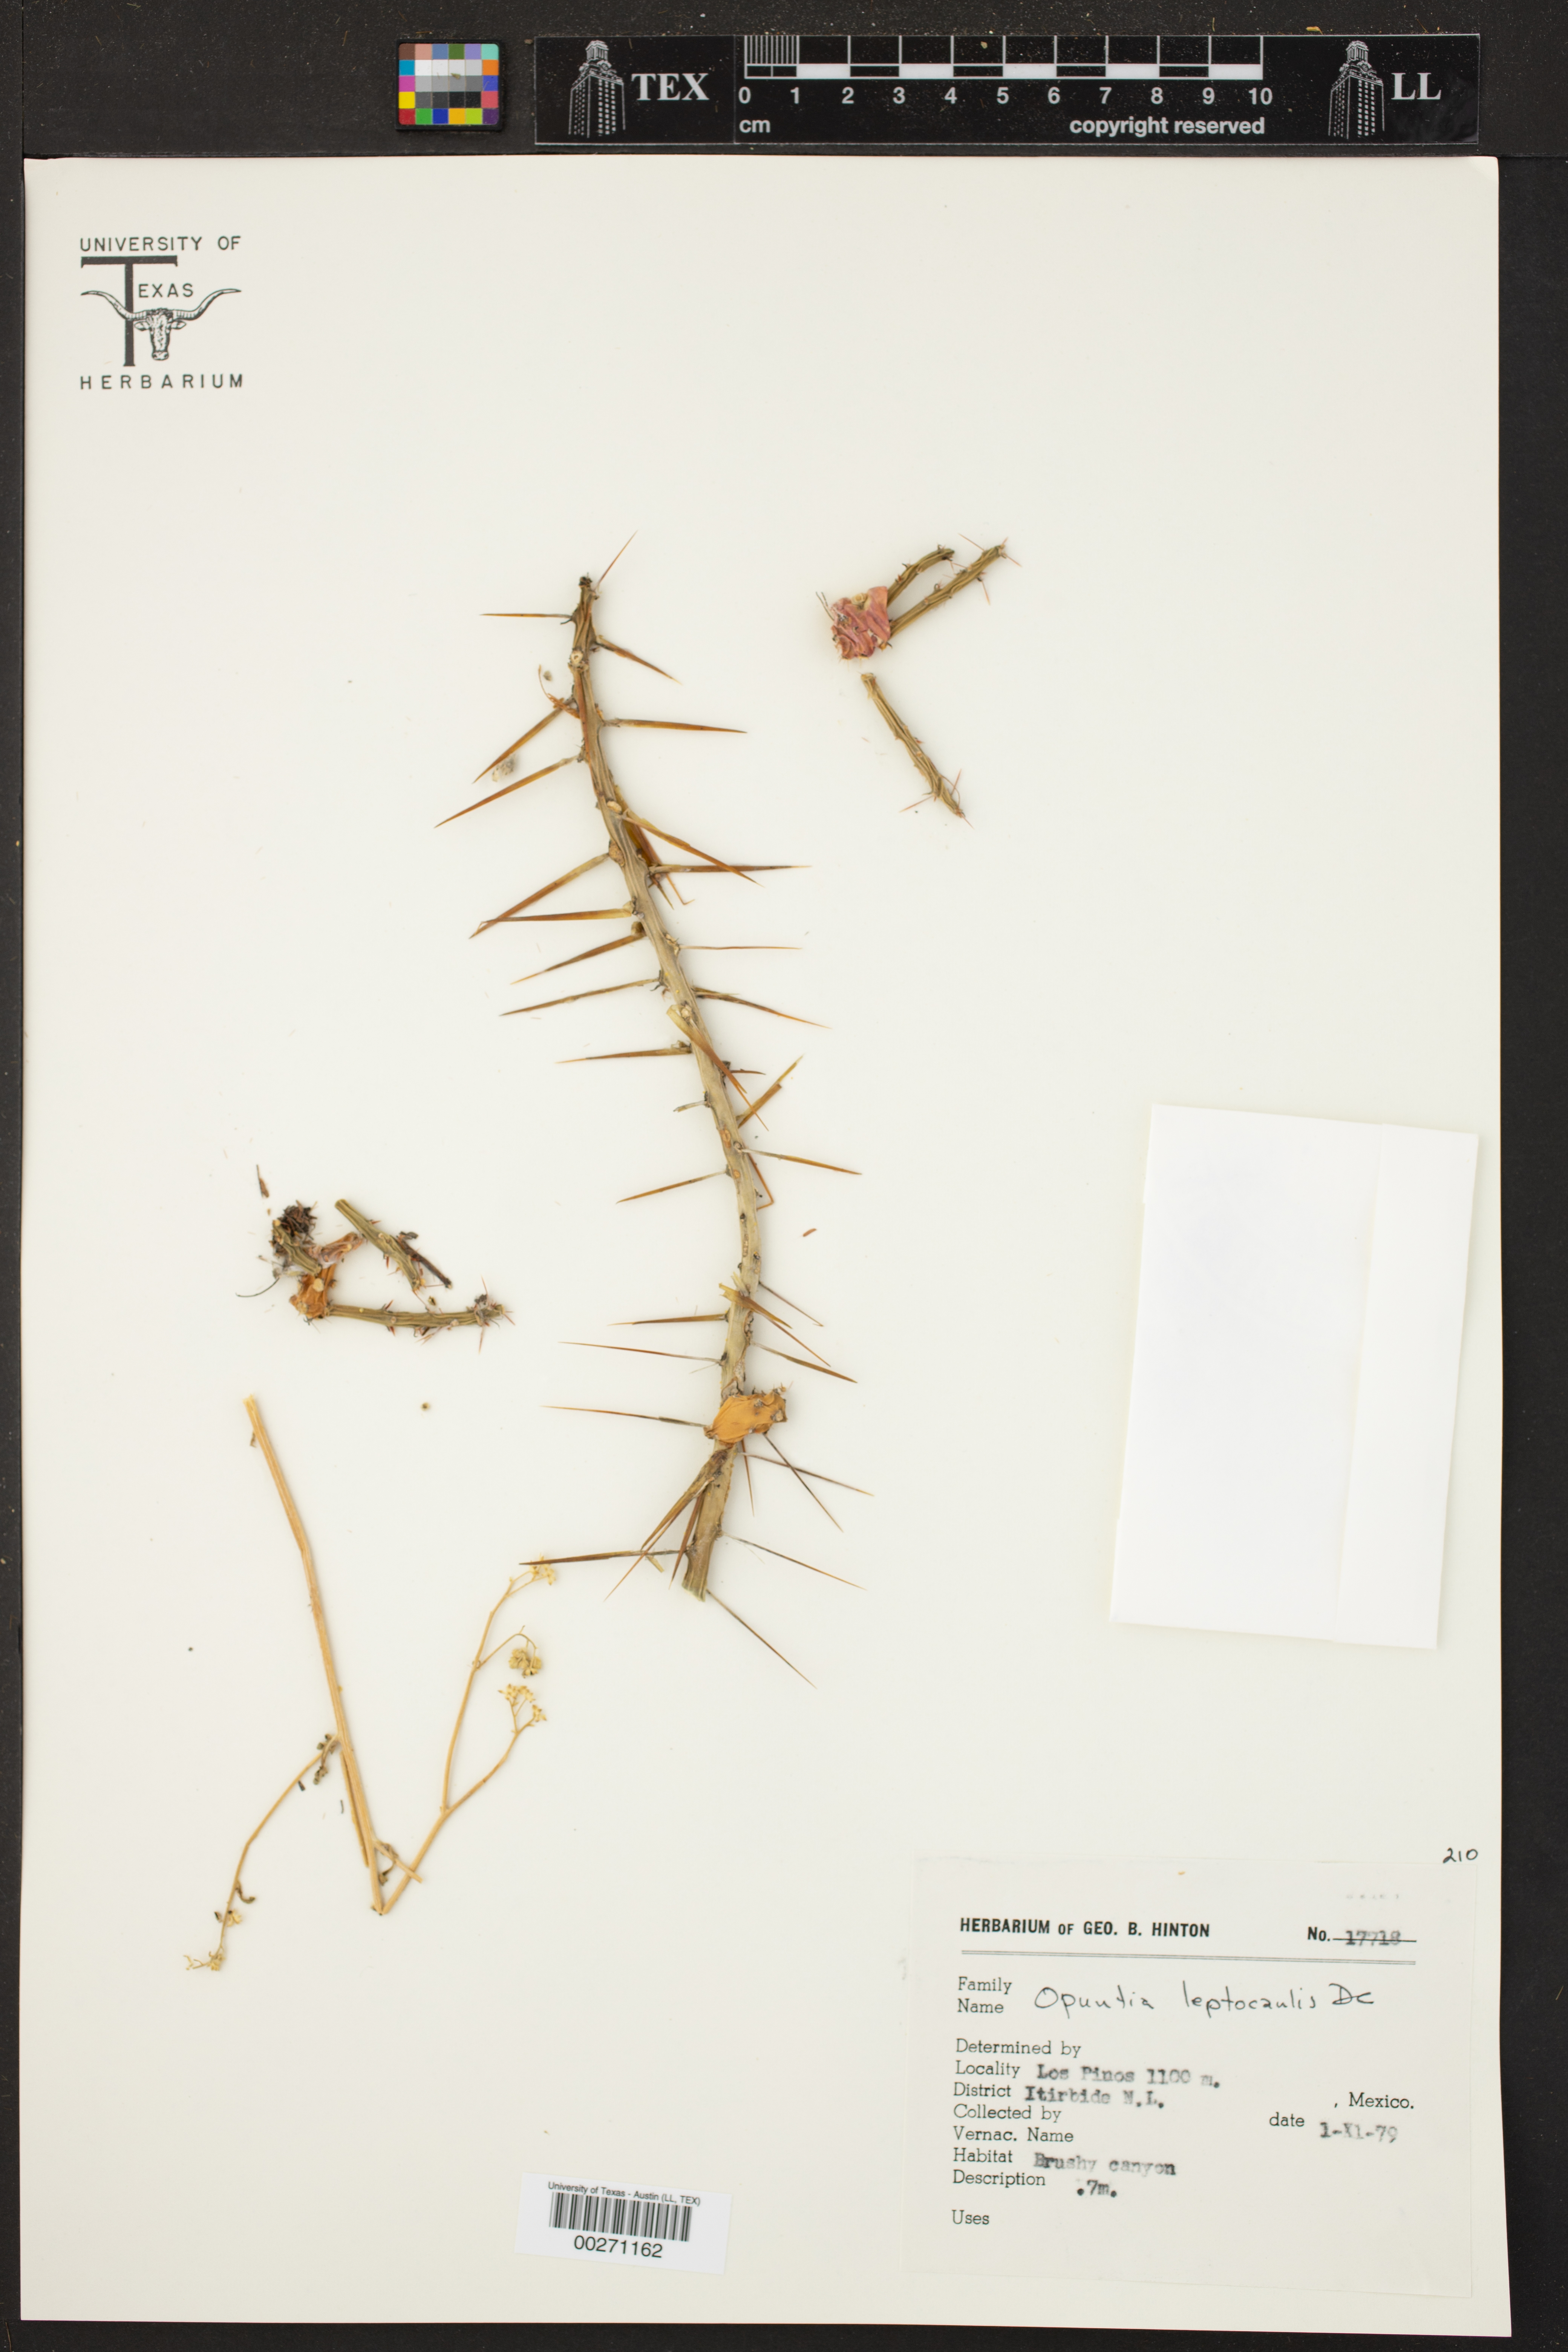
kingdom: Plantae
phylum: Tracheophyta
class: Magnoliopsida
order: Caryophyllales
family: Cactaceae
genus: Cylindropuntia
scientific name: Cylindropuntia leptocaulis
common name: Christmas cactus
